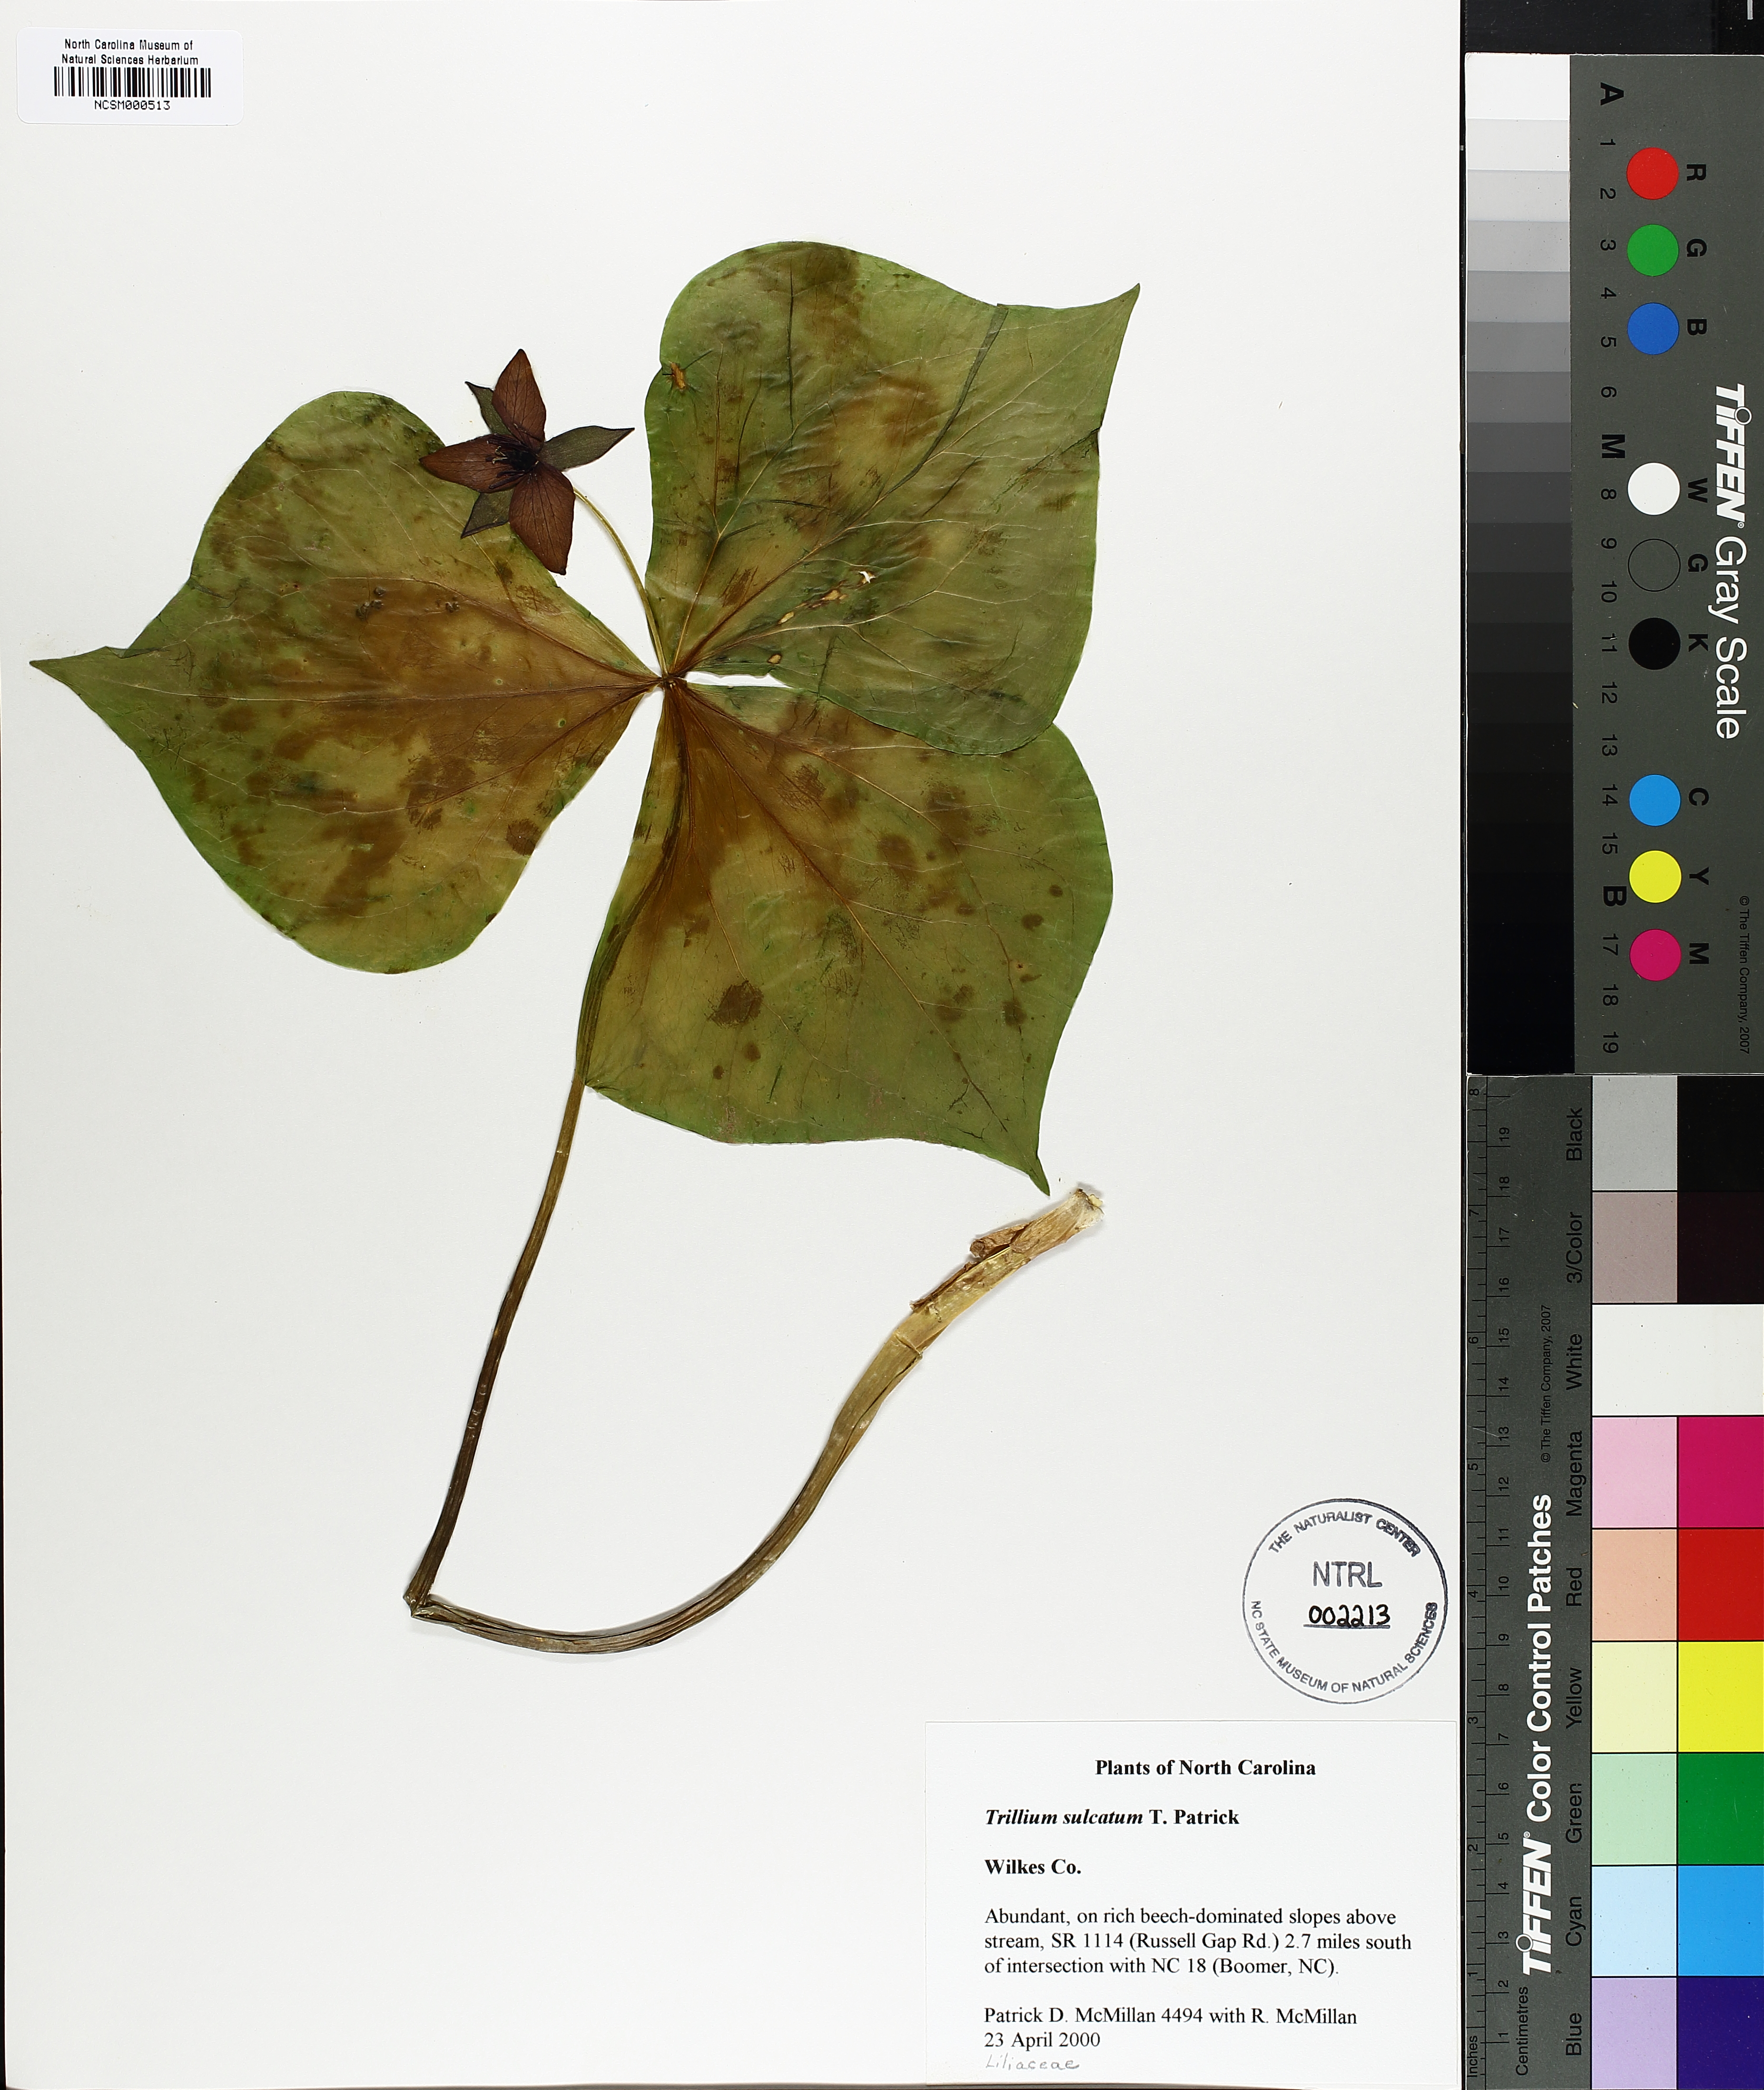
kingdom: Plantae
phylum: Tracheophyta
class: Liliopsida
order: Liliales
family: Melanthiaceae
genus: Trillium
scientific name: Trillium sulcatum
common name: Barksdale trillium
